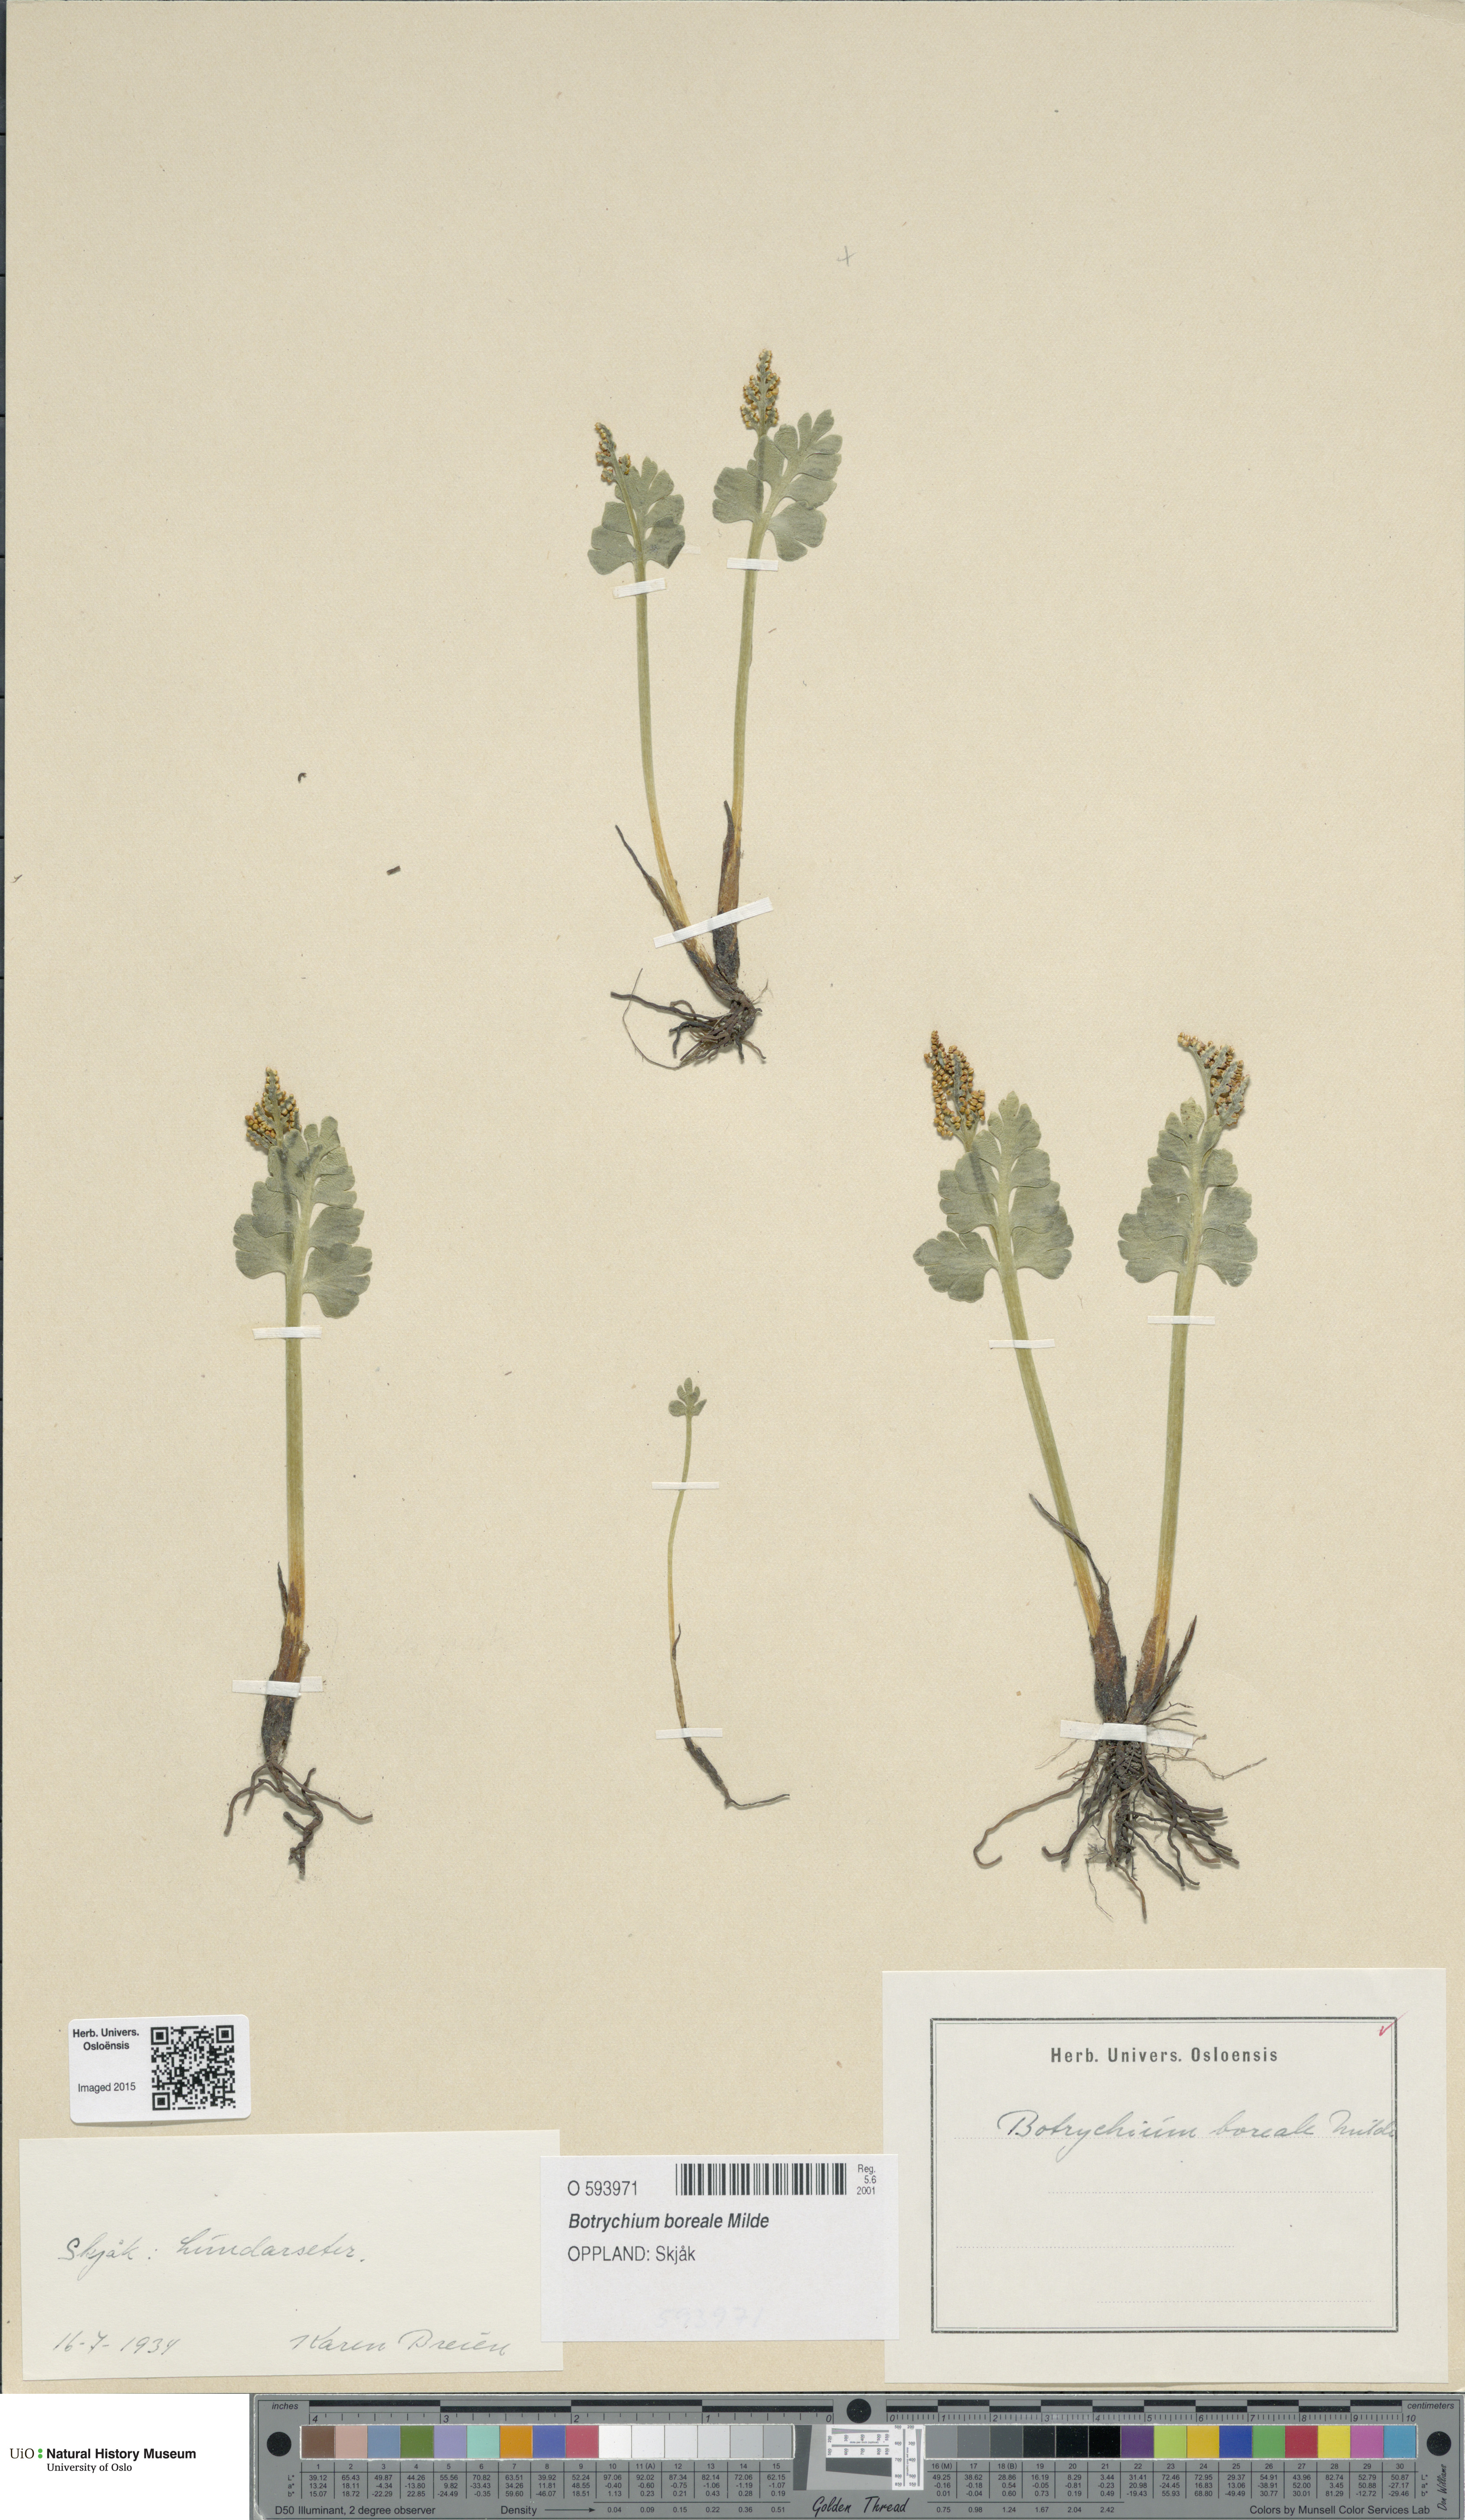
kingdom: Plantae
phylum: Tracheophyta
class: Polypodiopsida
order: Ophioglossales
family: Ophioglossaceae
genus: Botrychium
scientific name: Botrychium boreale
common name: Boreal moonwort
